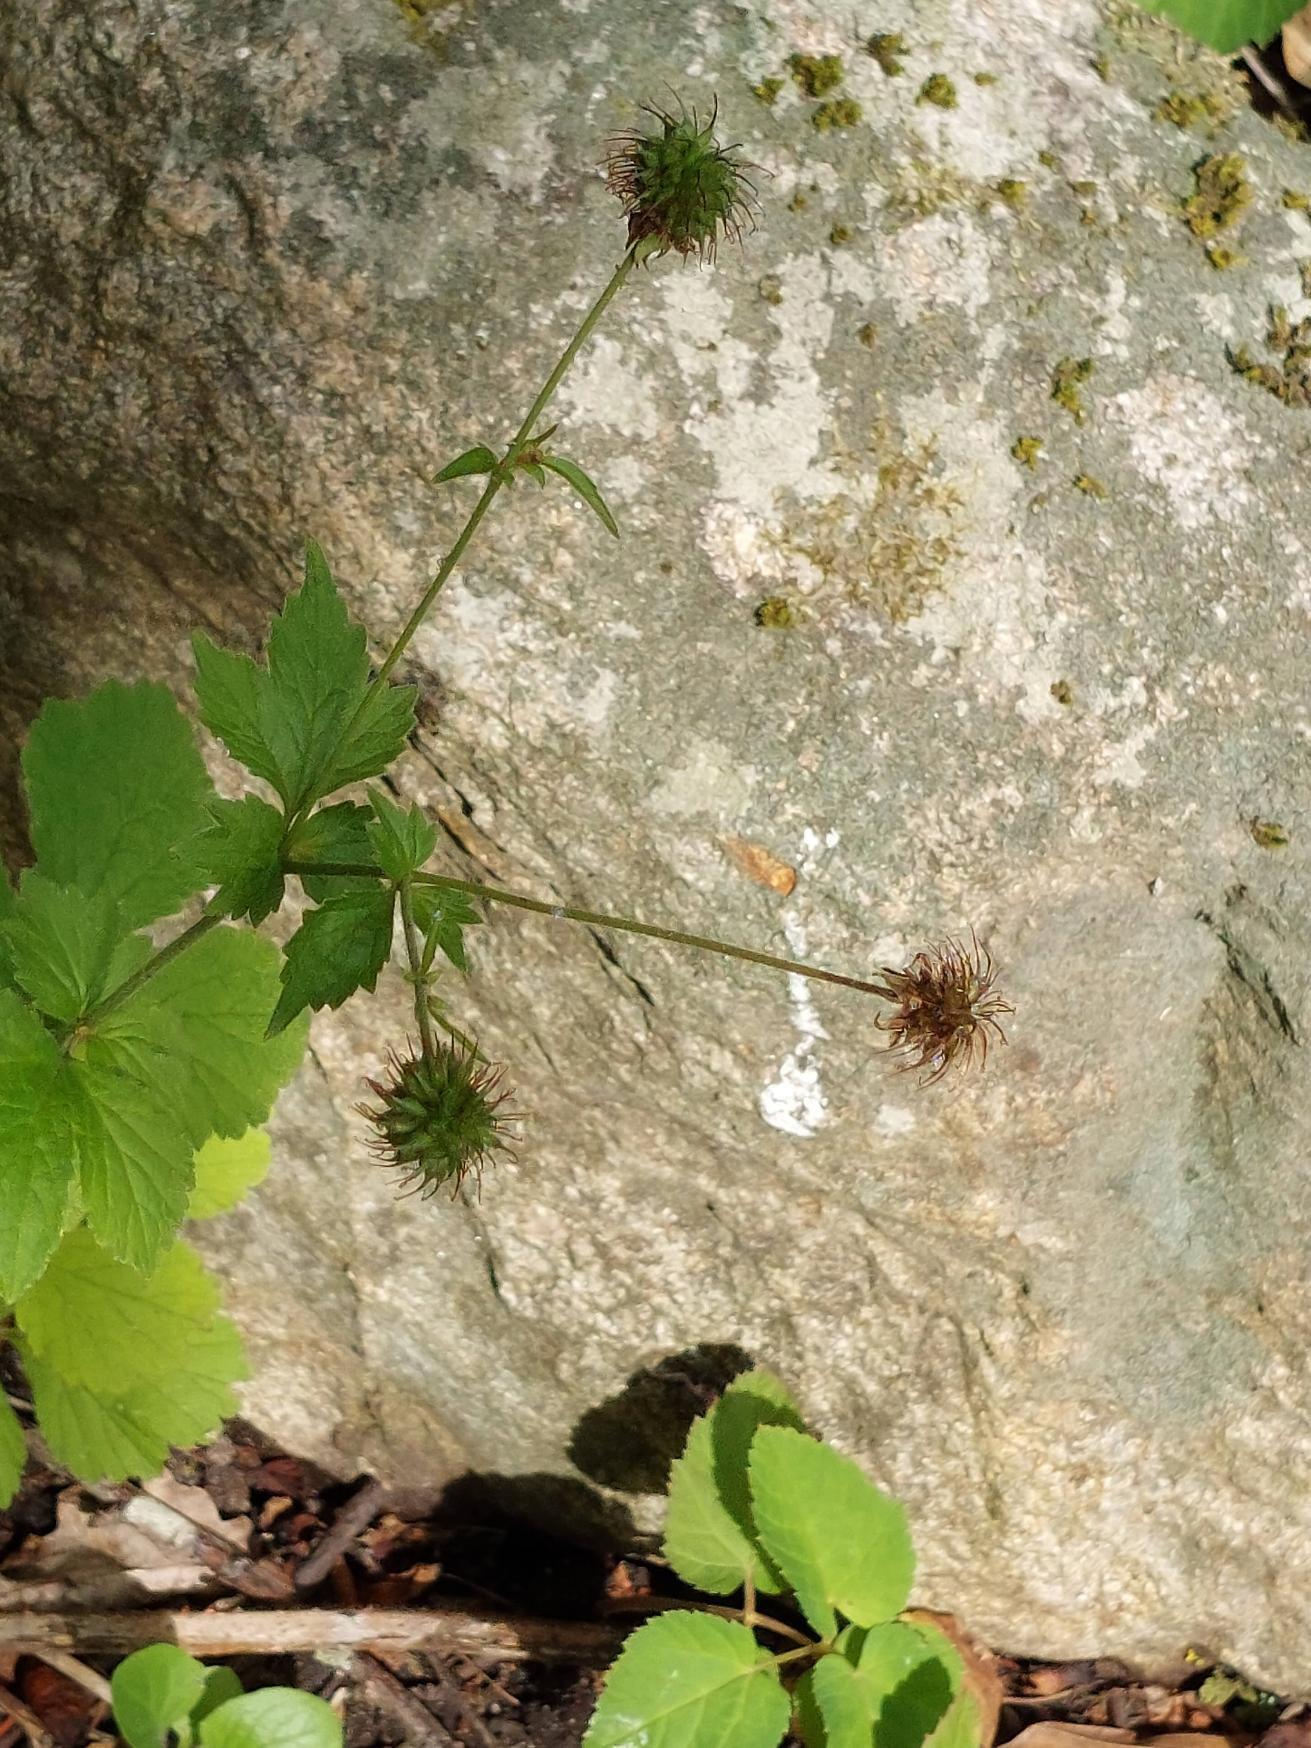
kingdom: Plantae
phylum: Tracheophyta
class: Magnoliopsida
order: Rosales
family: Rosaceae
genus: Geum
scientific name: Geum urbanum
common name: Feber-nellikerod
